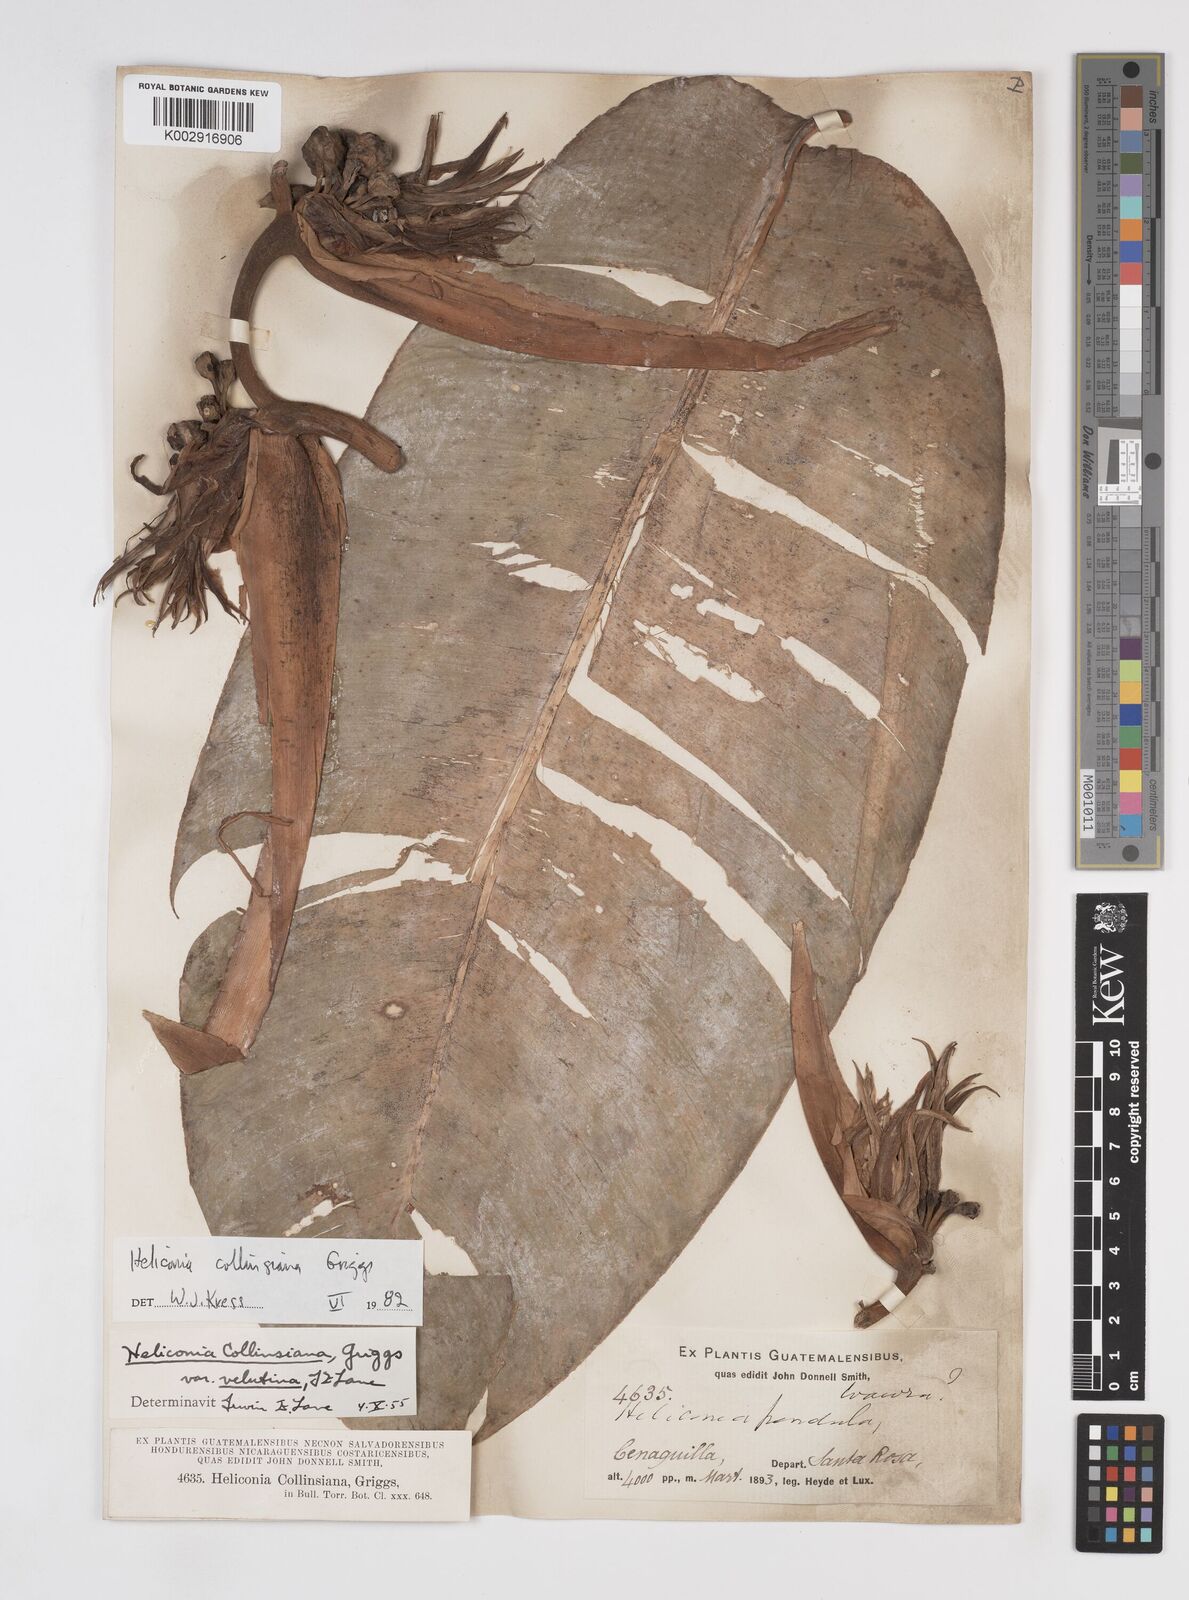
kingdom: Plantae
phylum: Tracheophyta
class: Liliopsida
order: Zingiberales
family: Heliconiaceae
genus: Heliconia
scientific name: Heliconia collinsiana
